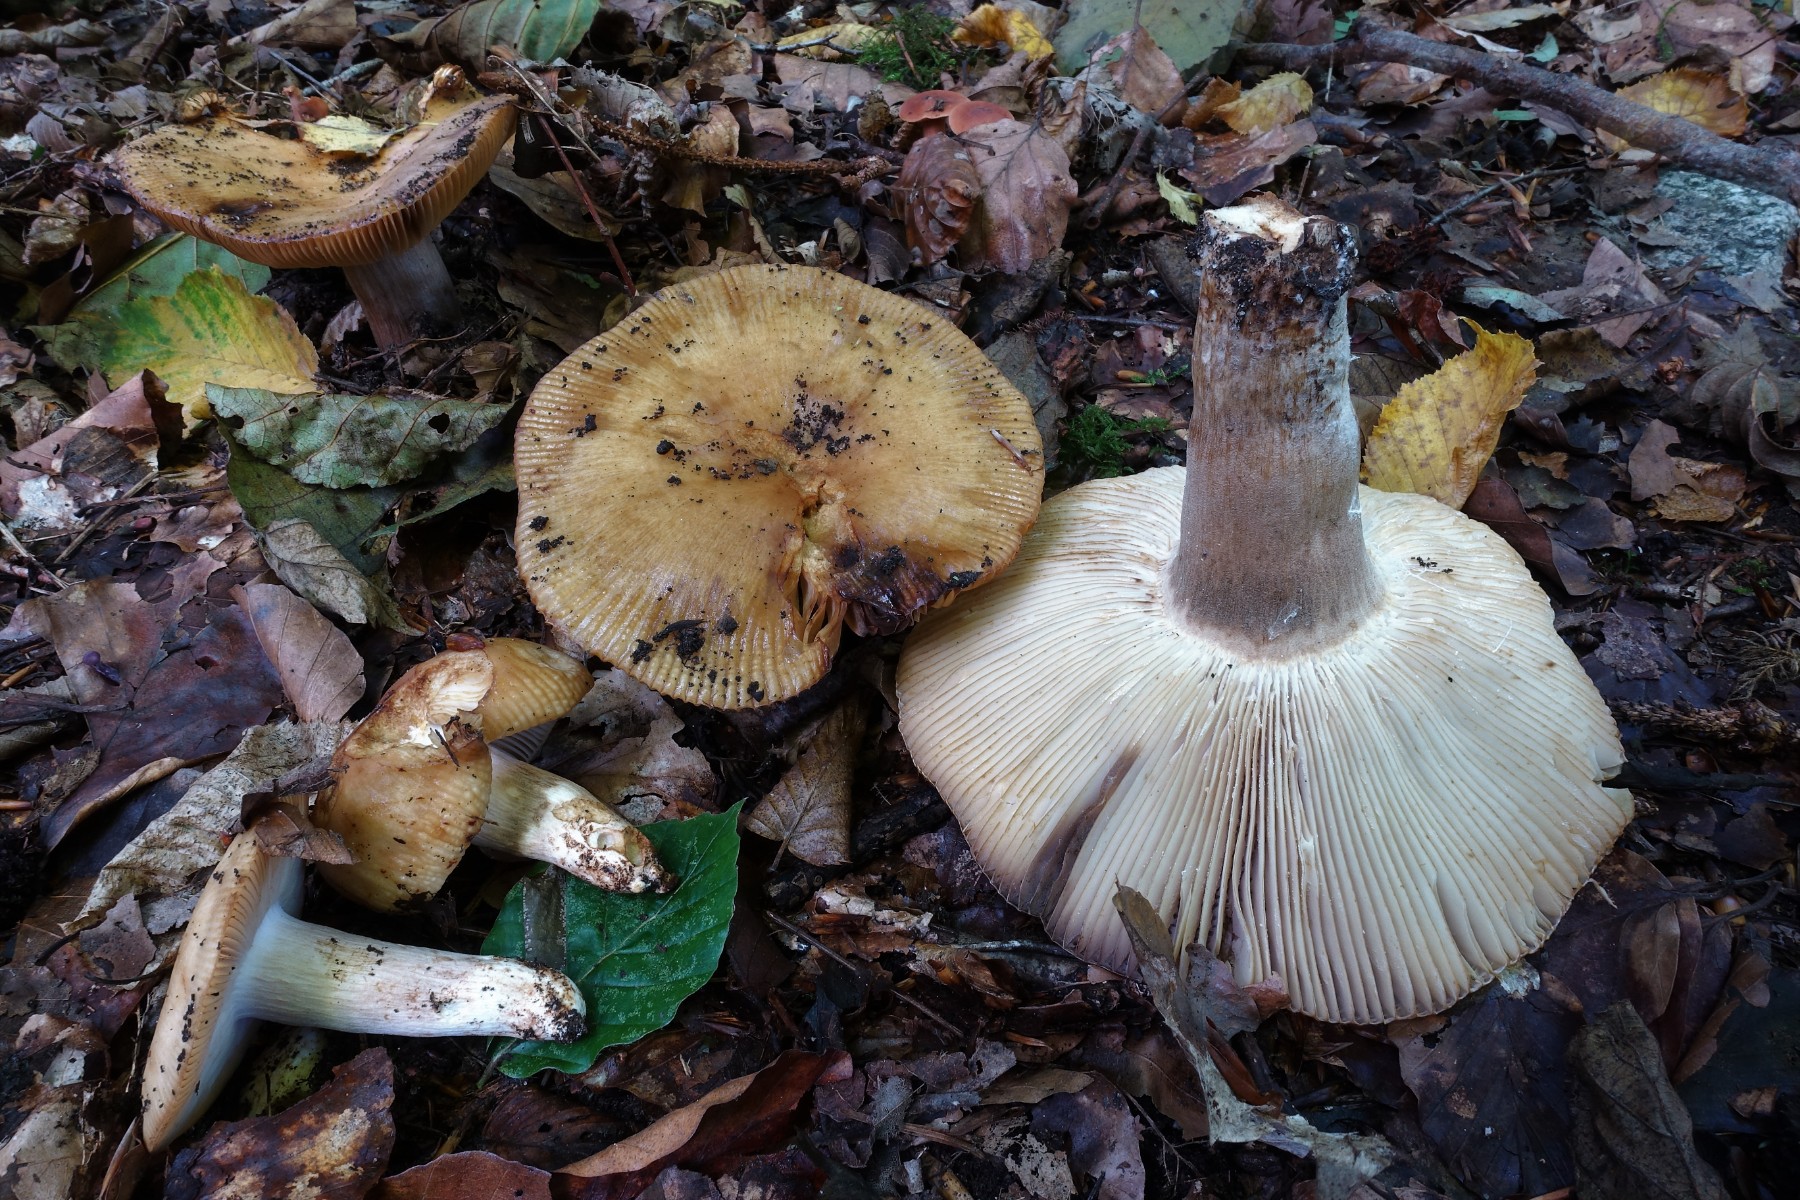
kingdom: Fungi
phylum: Basidiomycota
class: Agaricomycetes
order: Russulales
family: Russulaceae
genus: Russula
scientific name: Russula grata
